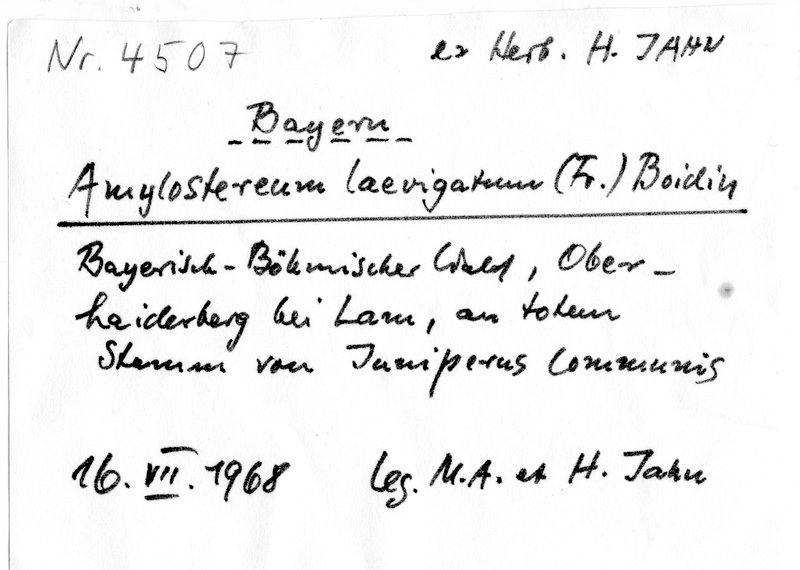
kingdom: Fungi
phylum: Basidiomycota
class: Agaricomycetes
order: Russulales
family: Echinodontiaceae
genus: Amylostereum
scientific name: Amylostereum laevigatum
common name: Yew duster
